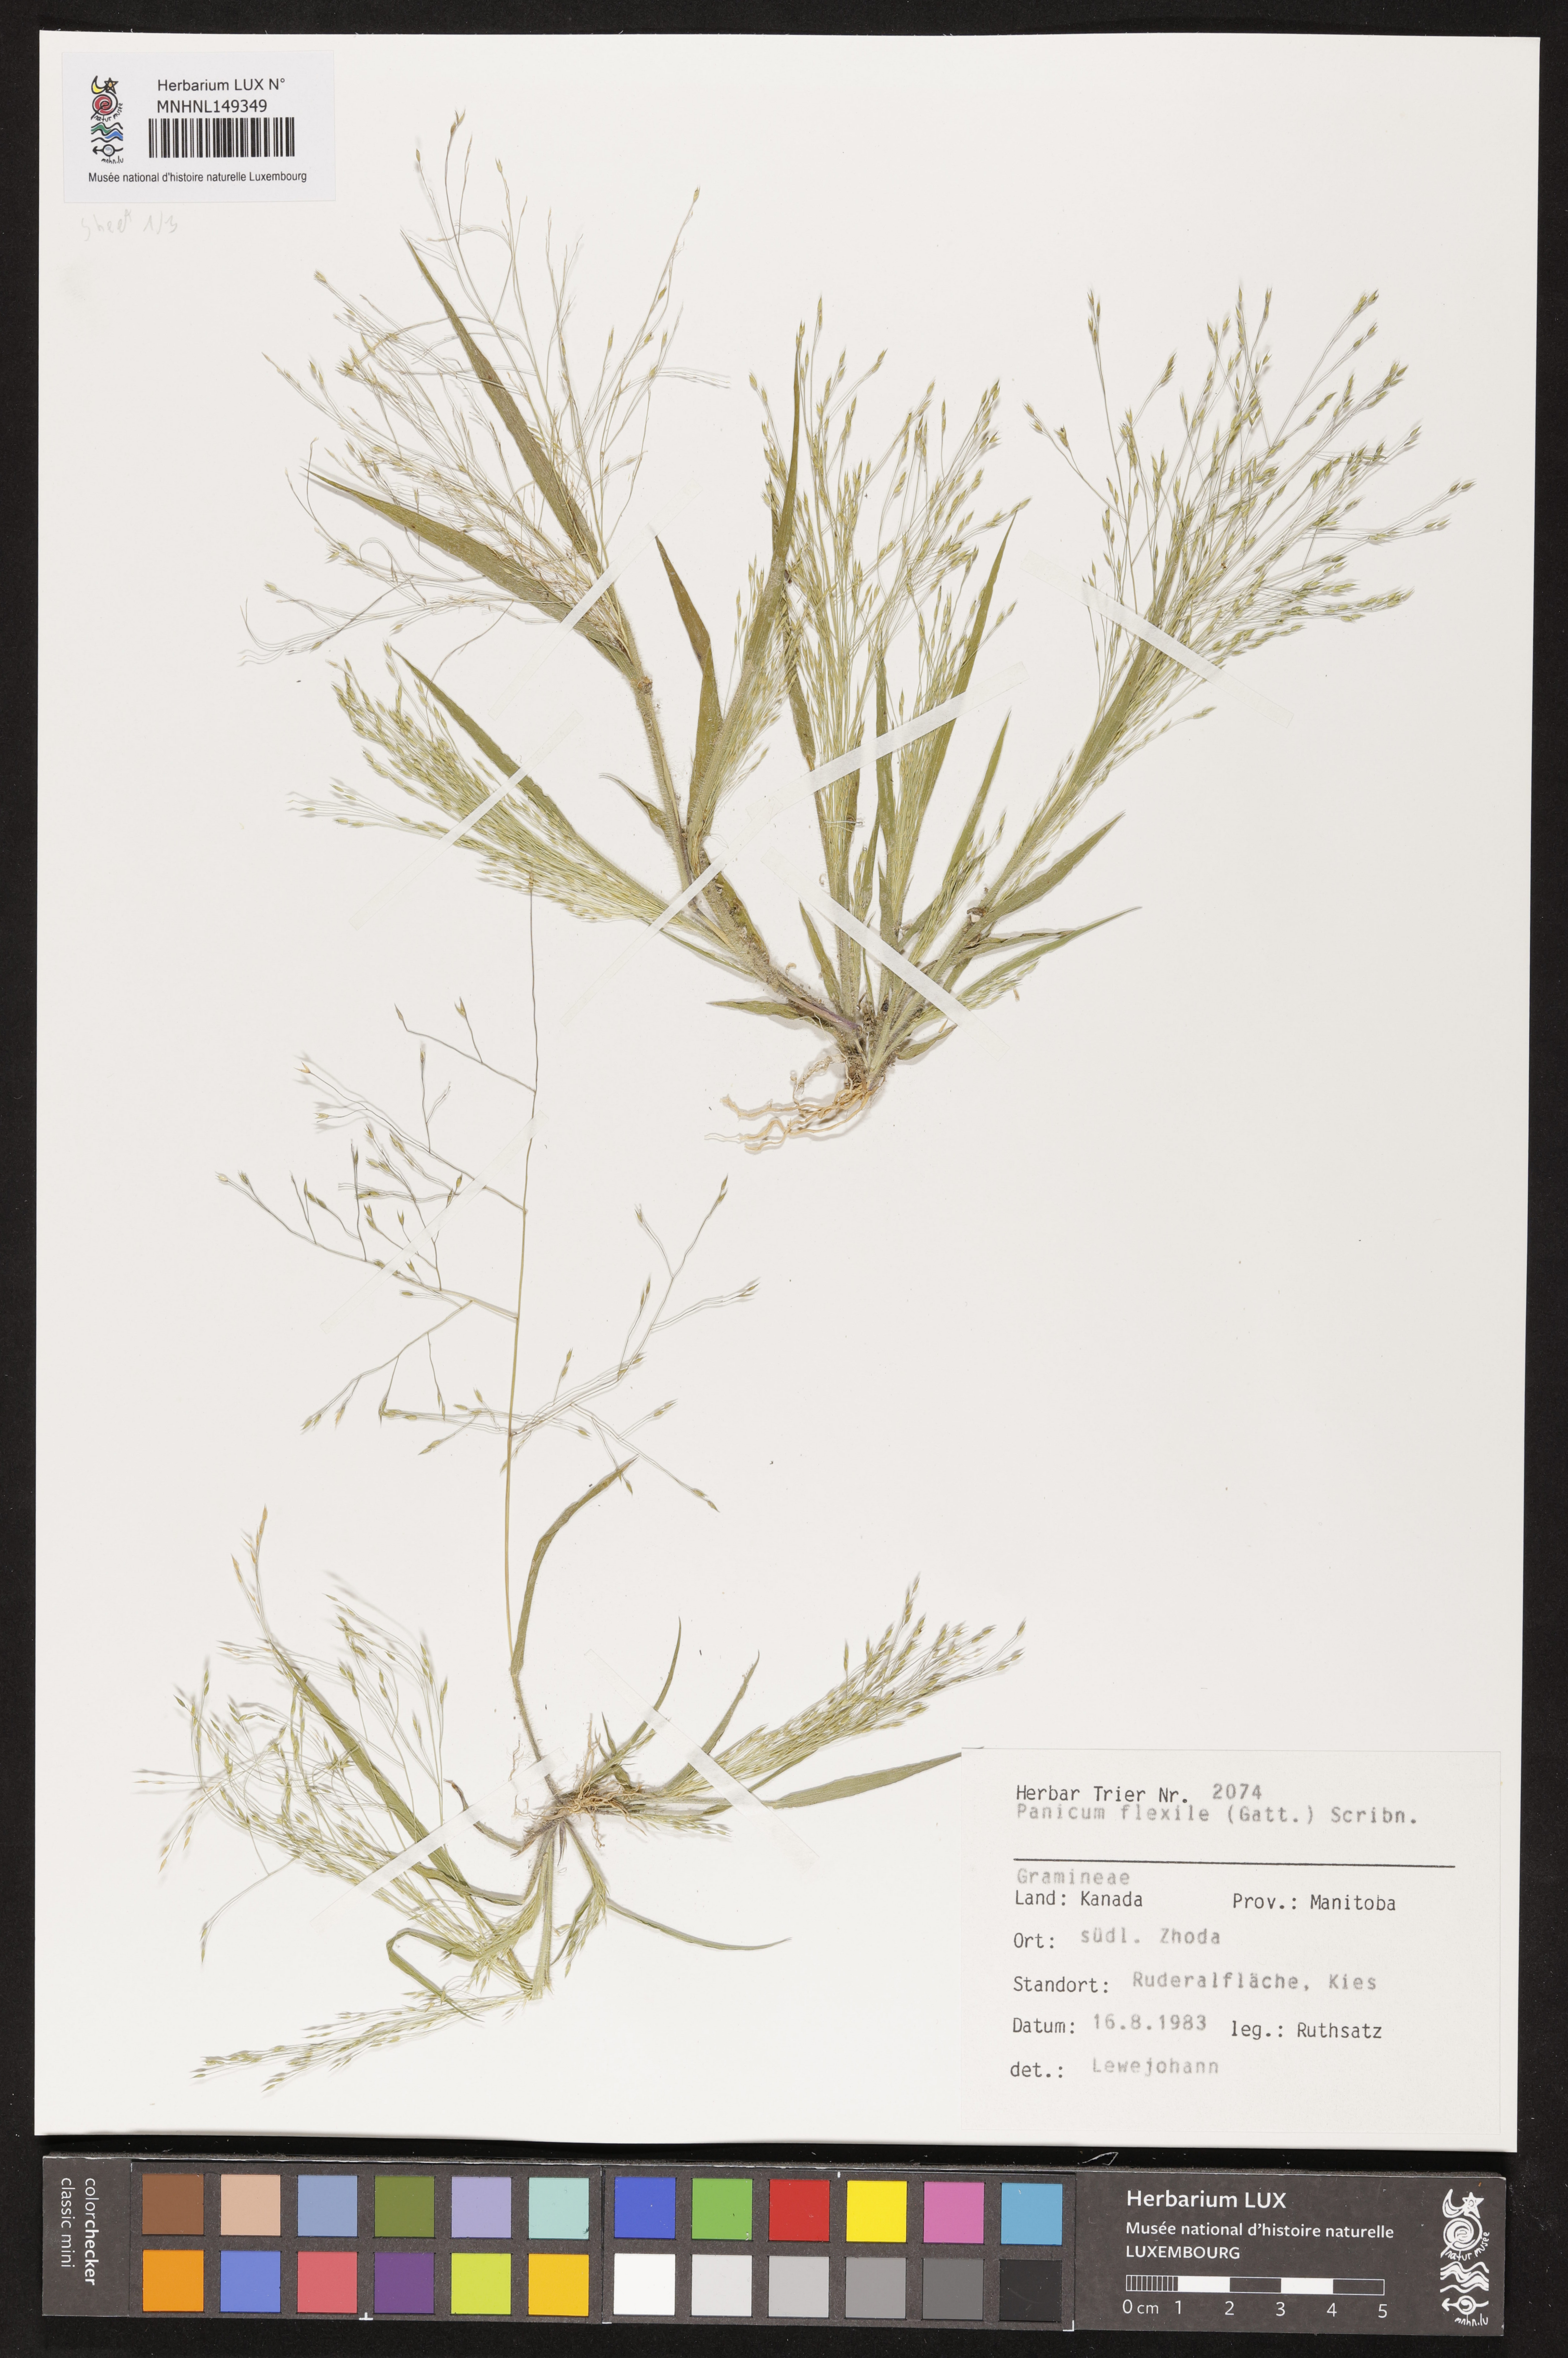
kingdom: Plantae
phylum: Tracheophyta
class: Liliopsida
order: Poales
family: Poaceae
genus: Panicum
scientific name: Panicum flexile
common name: Wiry panicgrass
